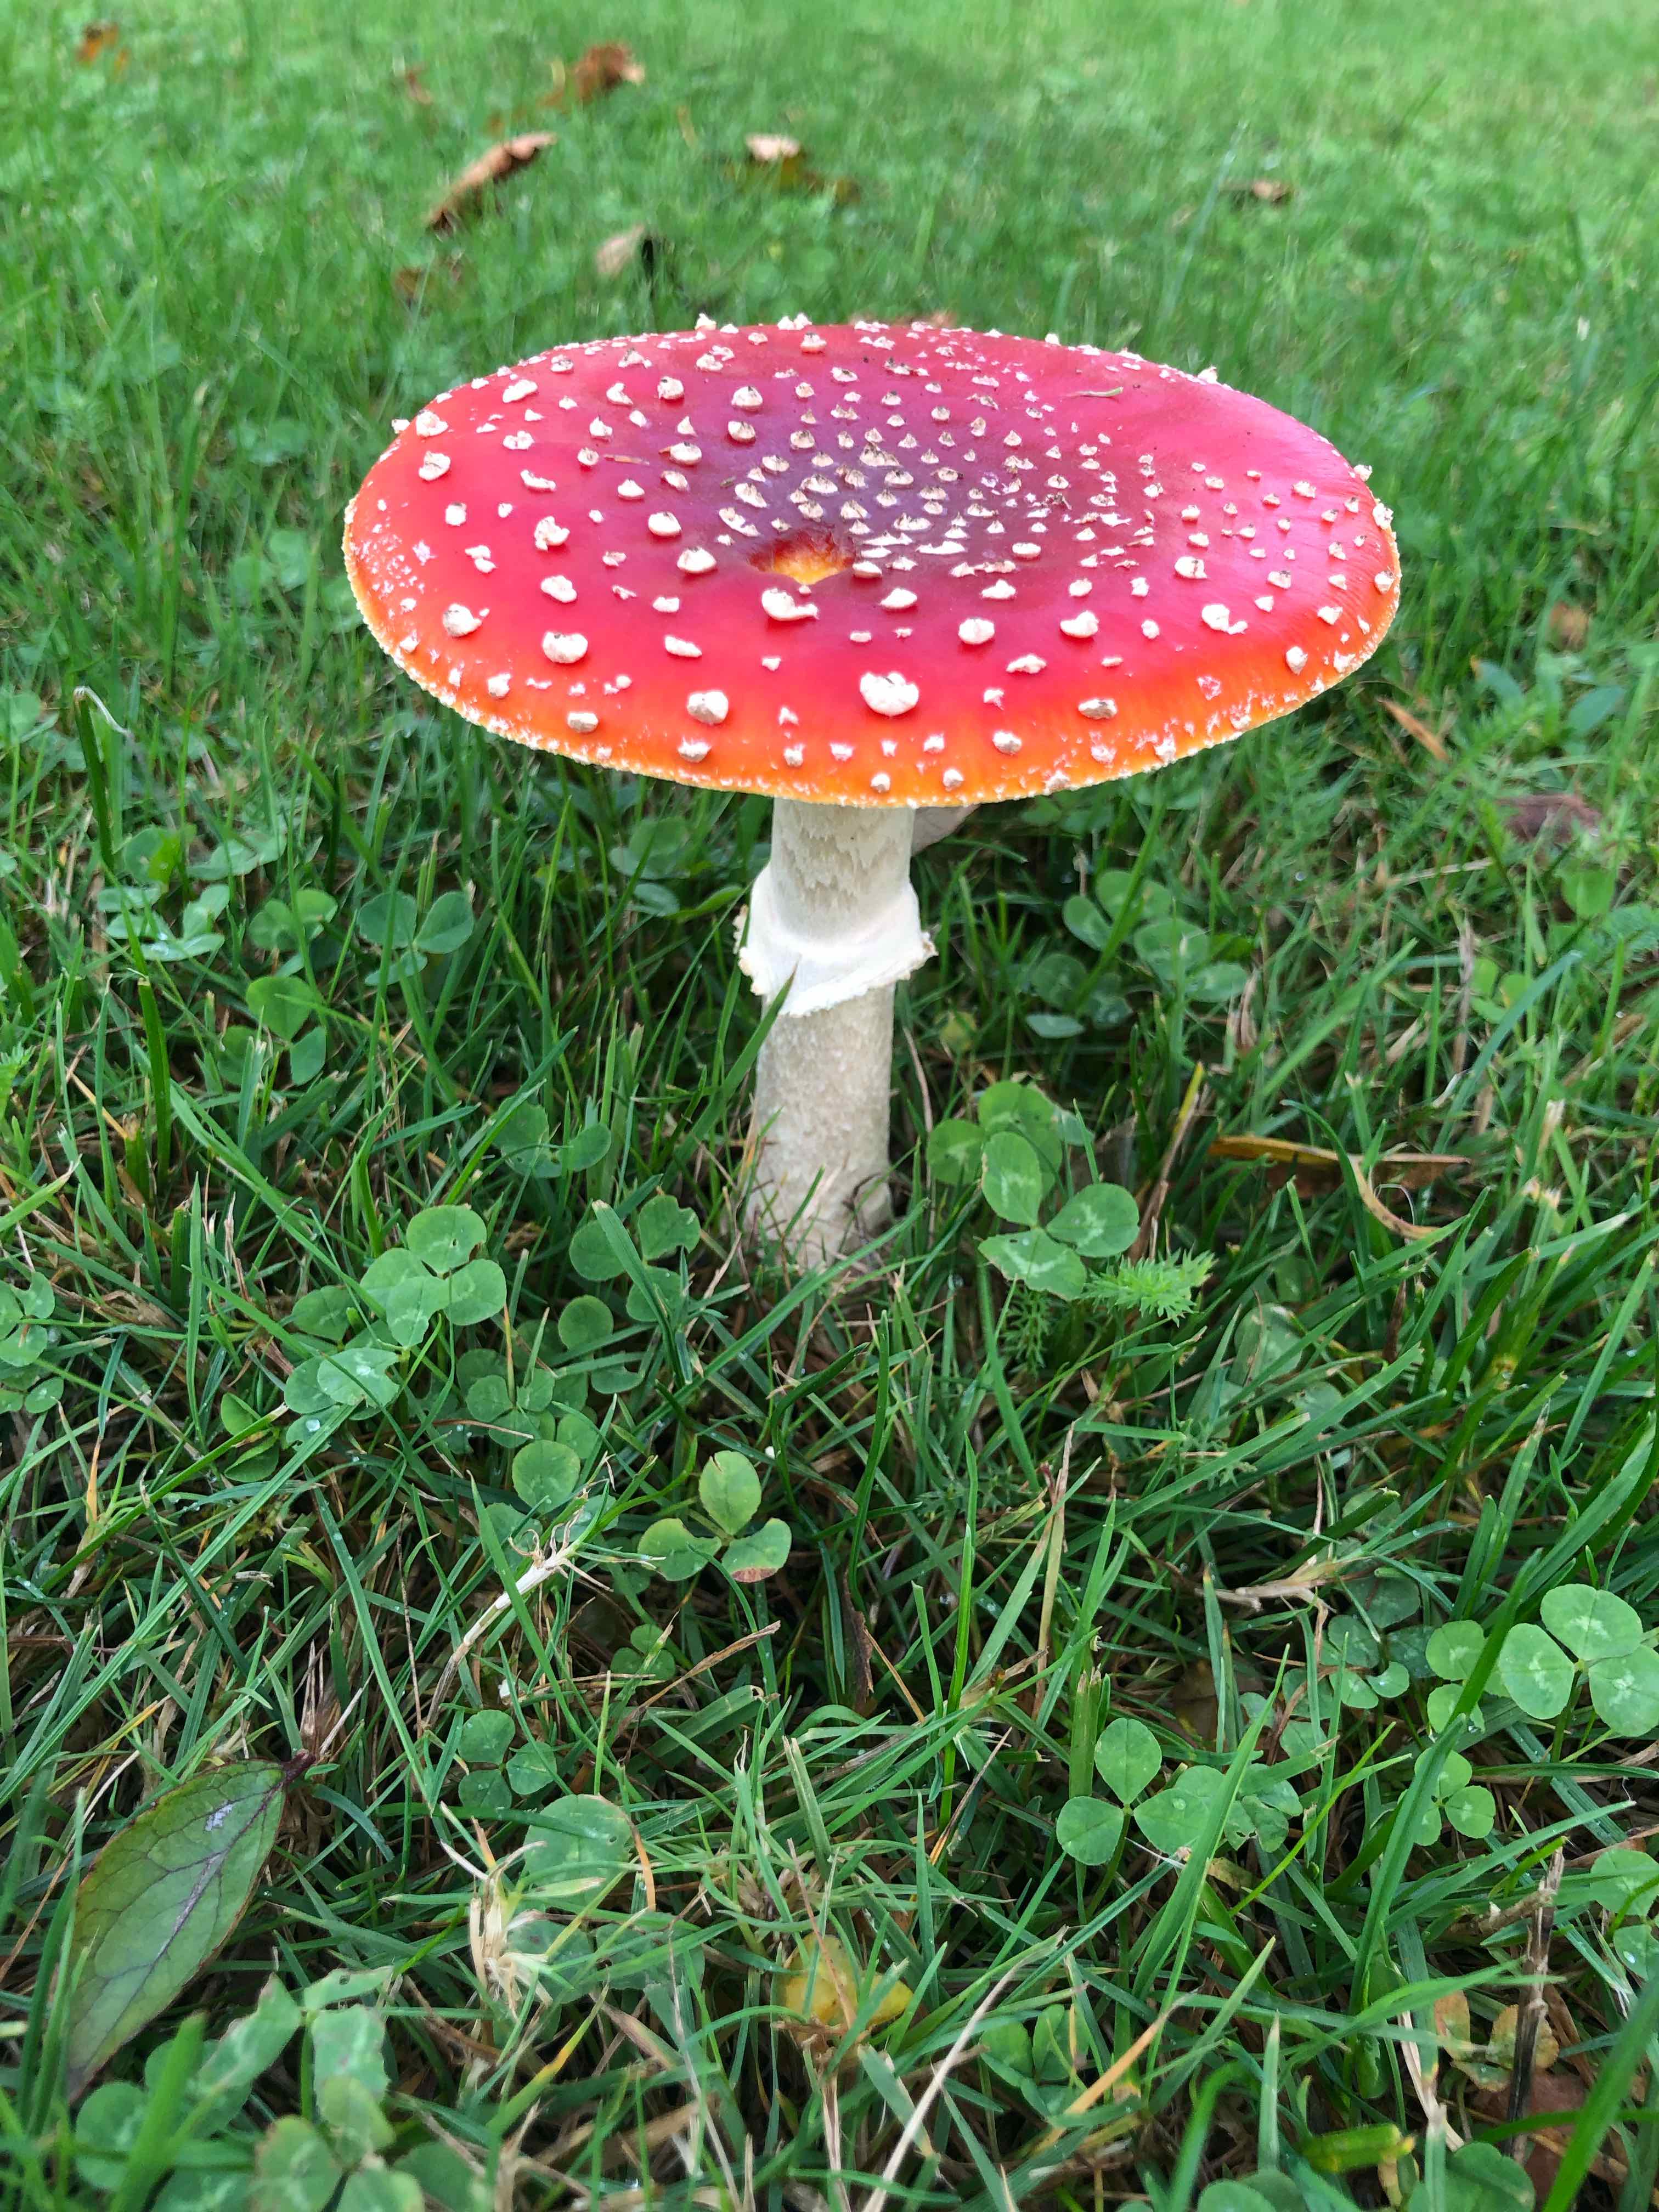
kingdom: Fungi
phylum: Basidiomycota
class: Agaricomycetes
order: Agaricales
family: Amanitaceae
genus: Amanita
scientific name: Amanita muscaria
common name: rød fluesvamp
